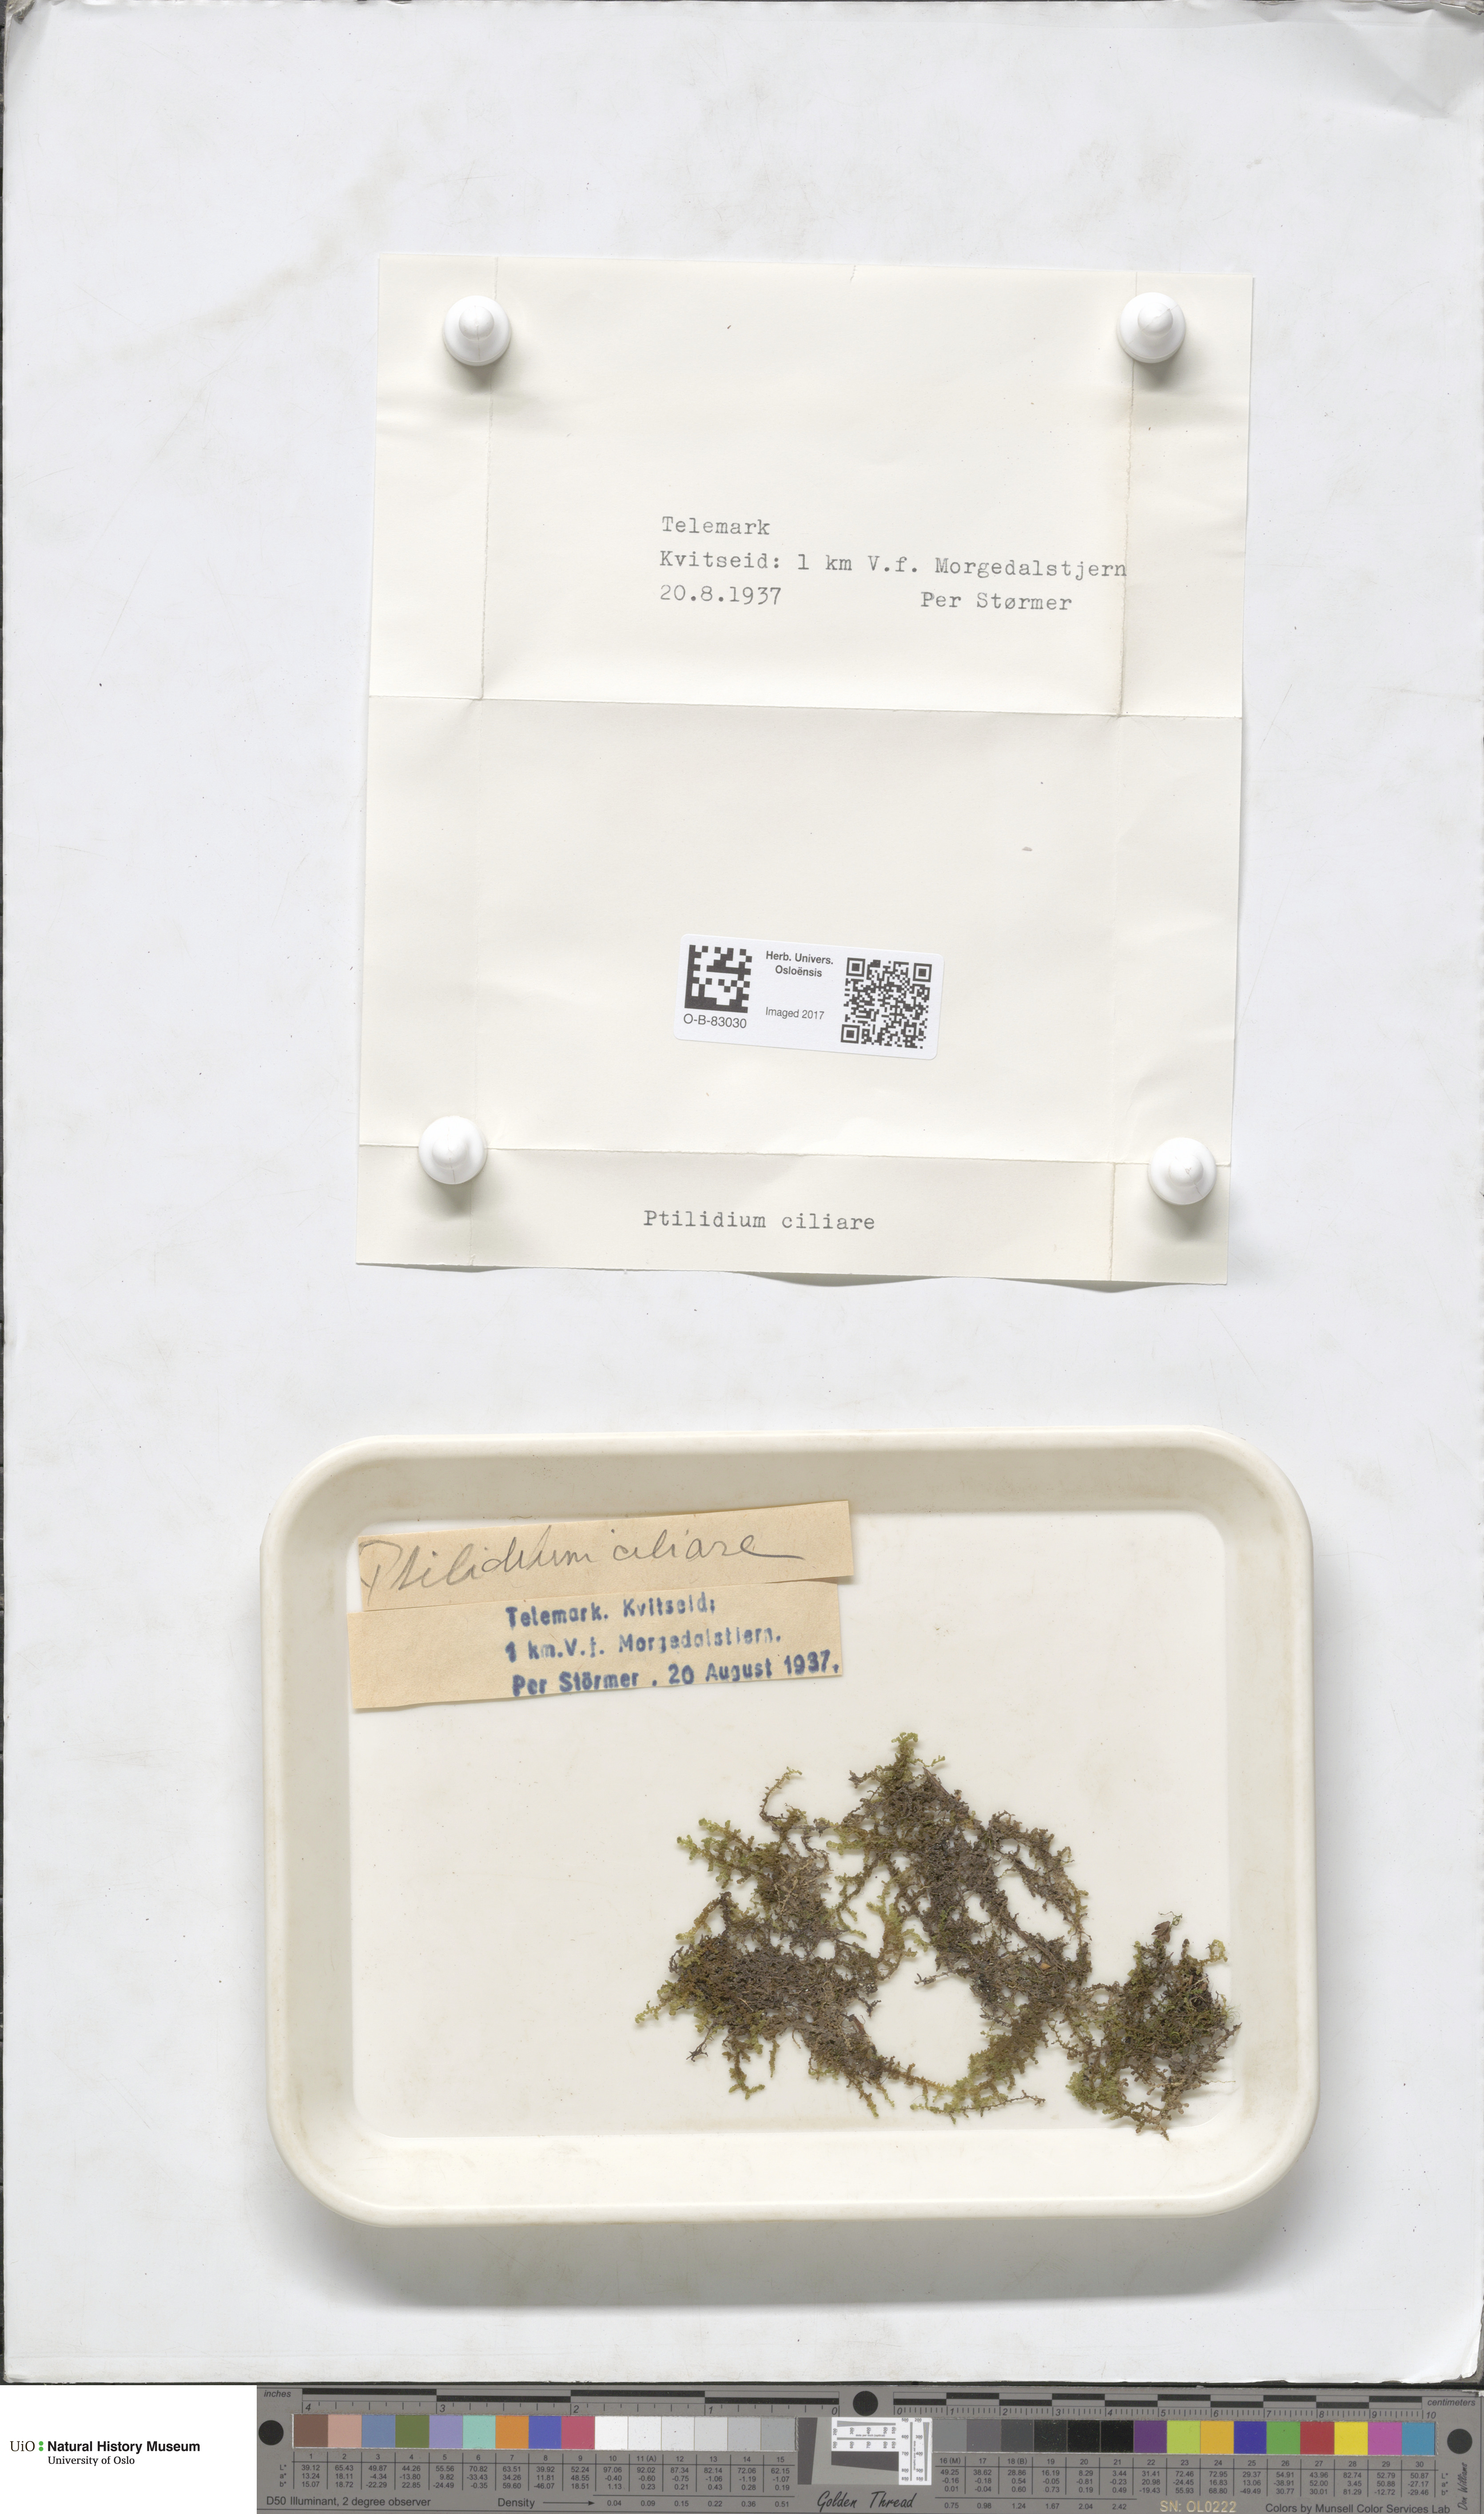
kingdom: Plantae
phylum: Marchantiophyta
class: Jungermanniopsida
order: Ptilidiales
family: Ptilidiaceae
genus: Ptilidium
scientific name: Ptilidium ciliare
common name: Ciliate fringewort
